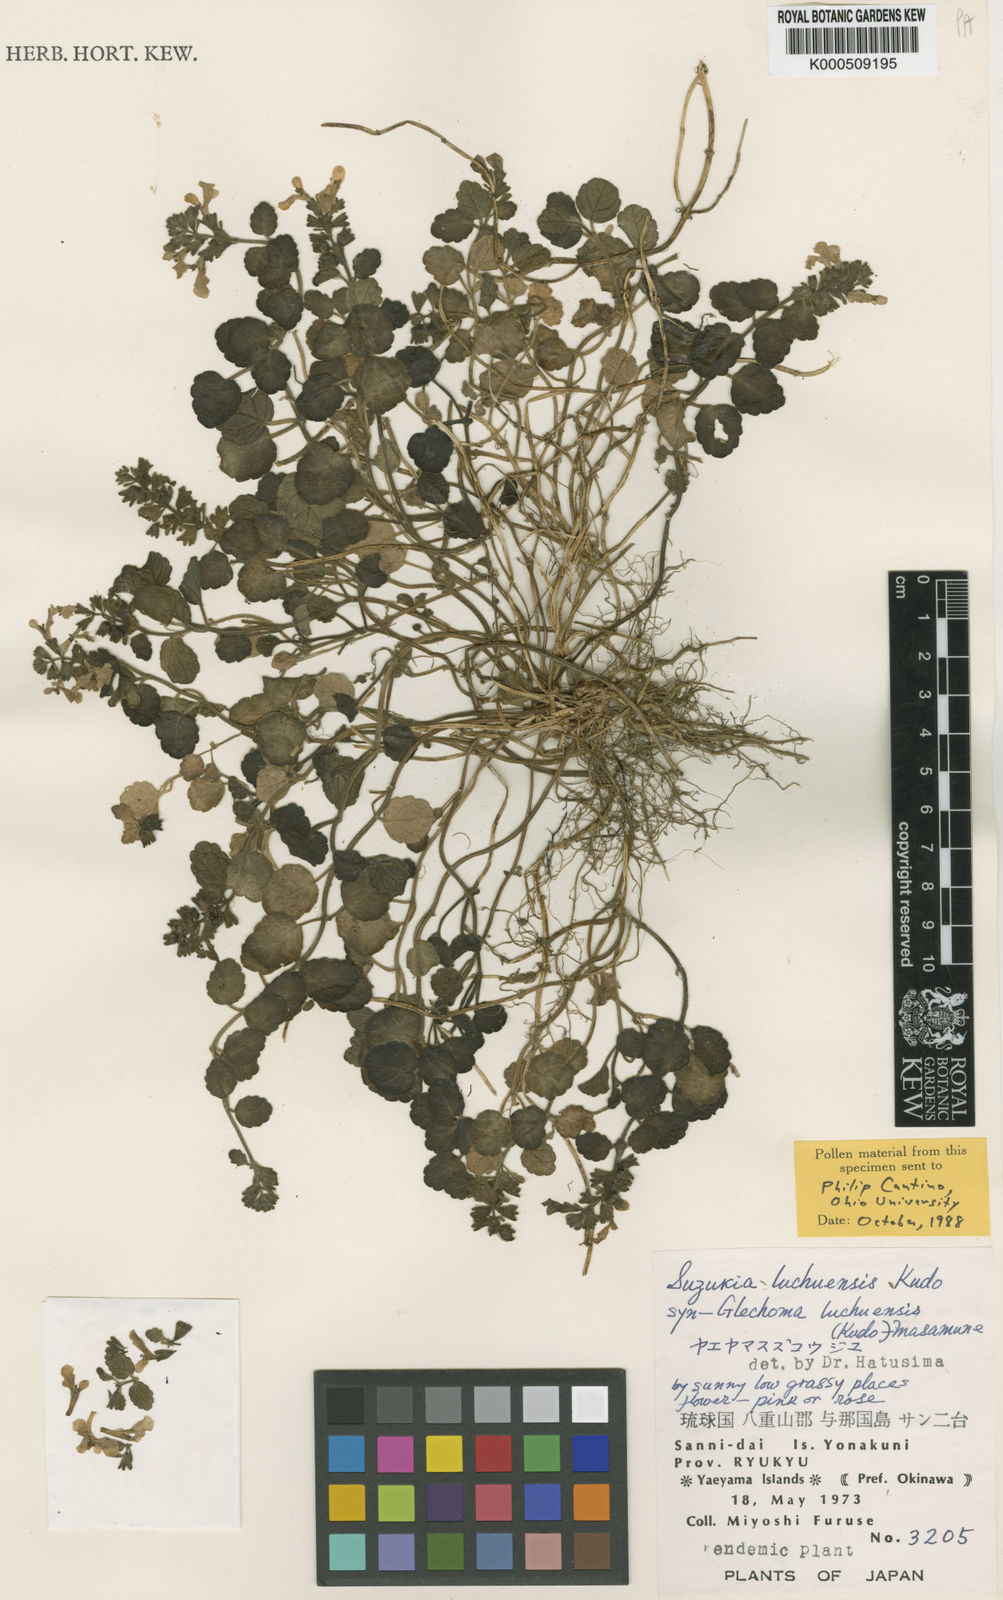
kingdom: Plantae
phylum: Tracheophyta
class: Magnoliopsida
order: Lamiales
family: Lamiaceae
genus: Suzukia
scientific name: Suzukia luchuensis
